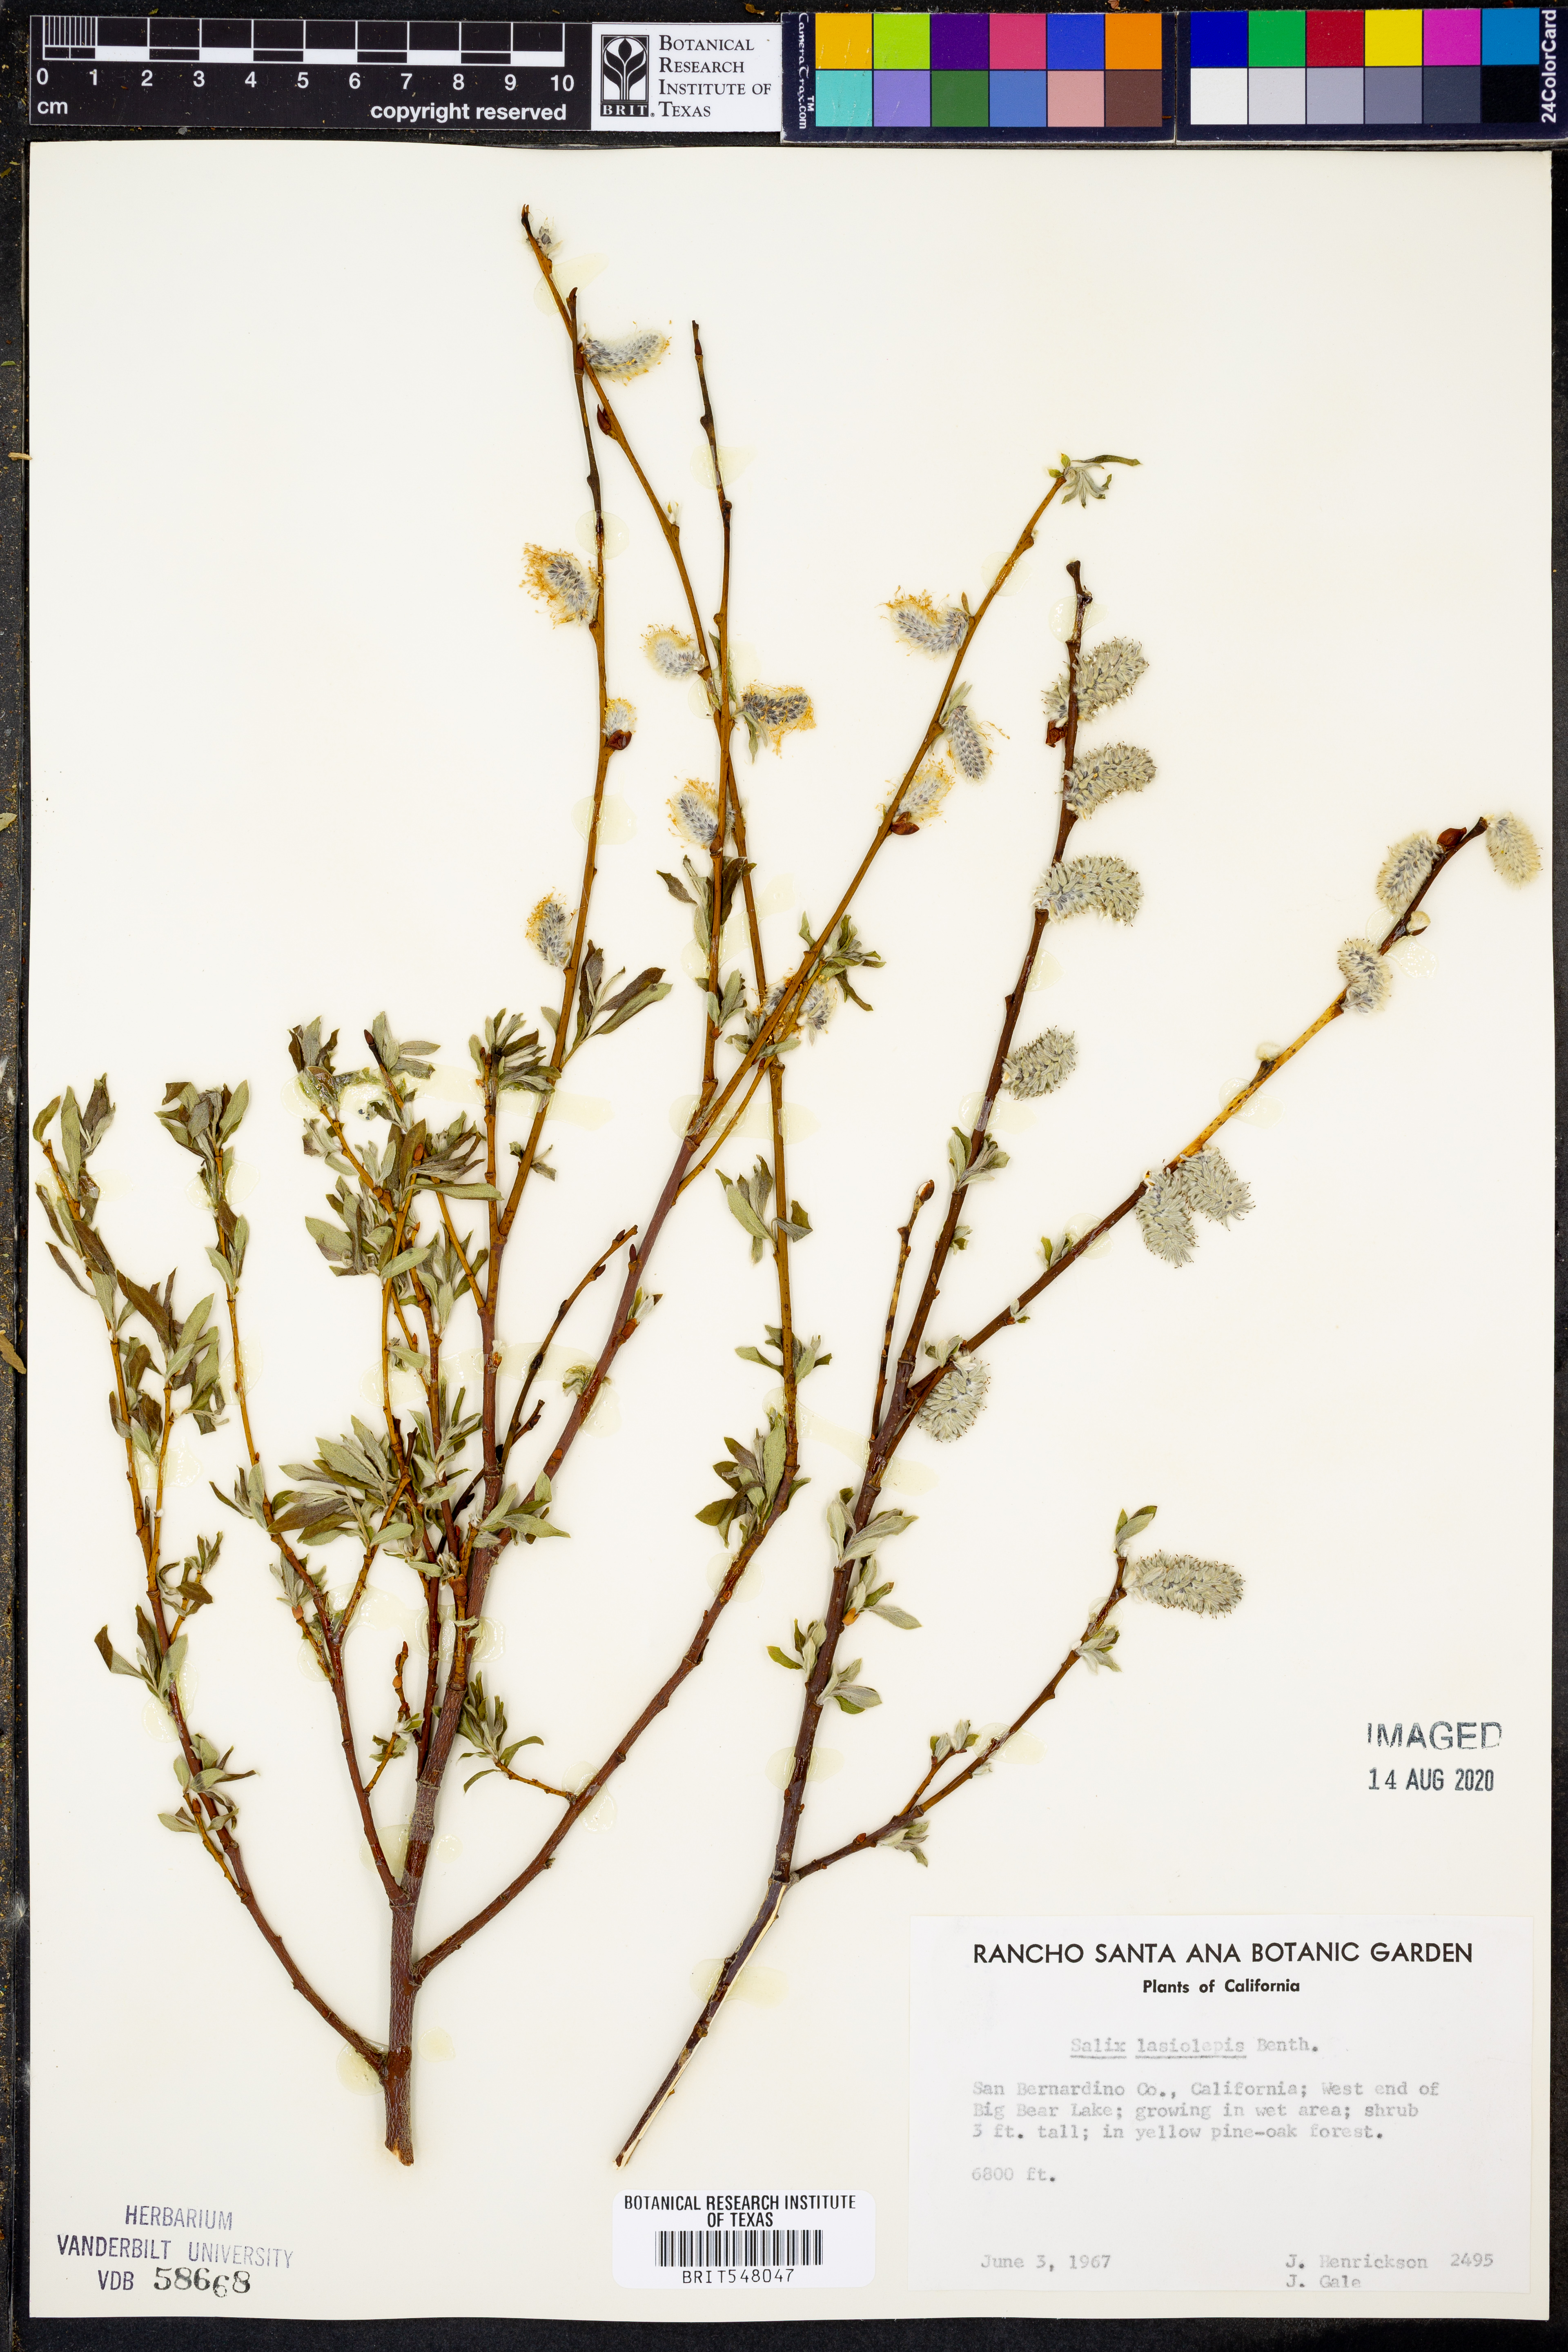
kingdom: Plantae
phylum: Tracheophyta
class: Magnoliopsida
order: Malpighiales
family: Salicaceae
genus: Salix
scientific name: Salix lasiolepis
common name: Arroyo willow
